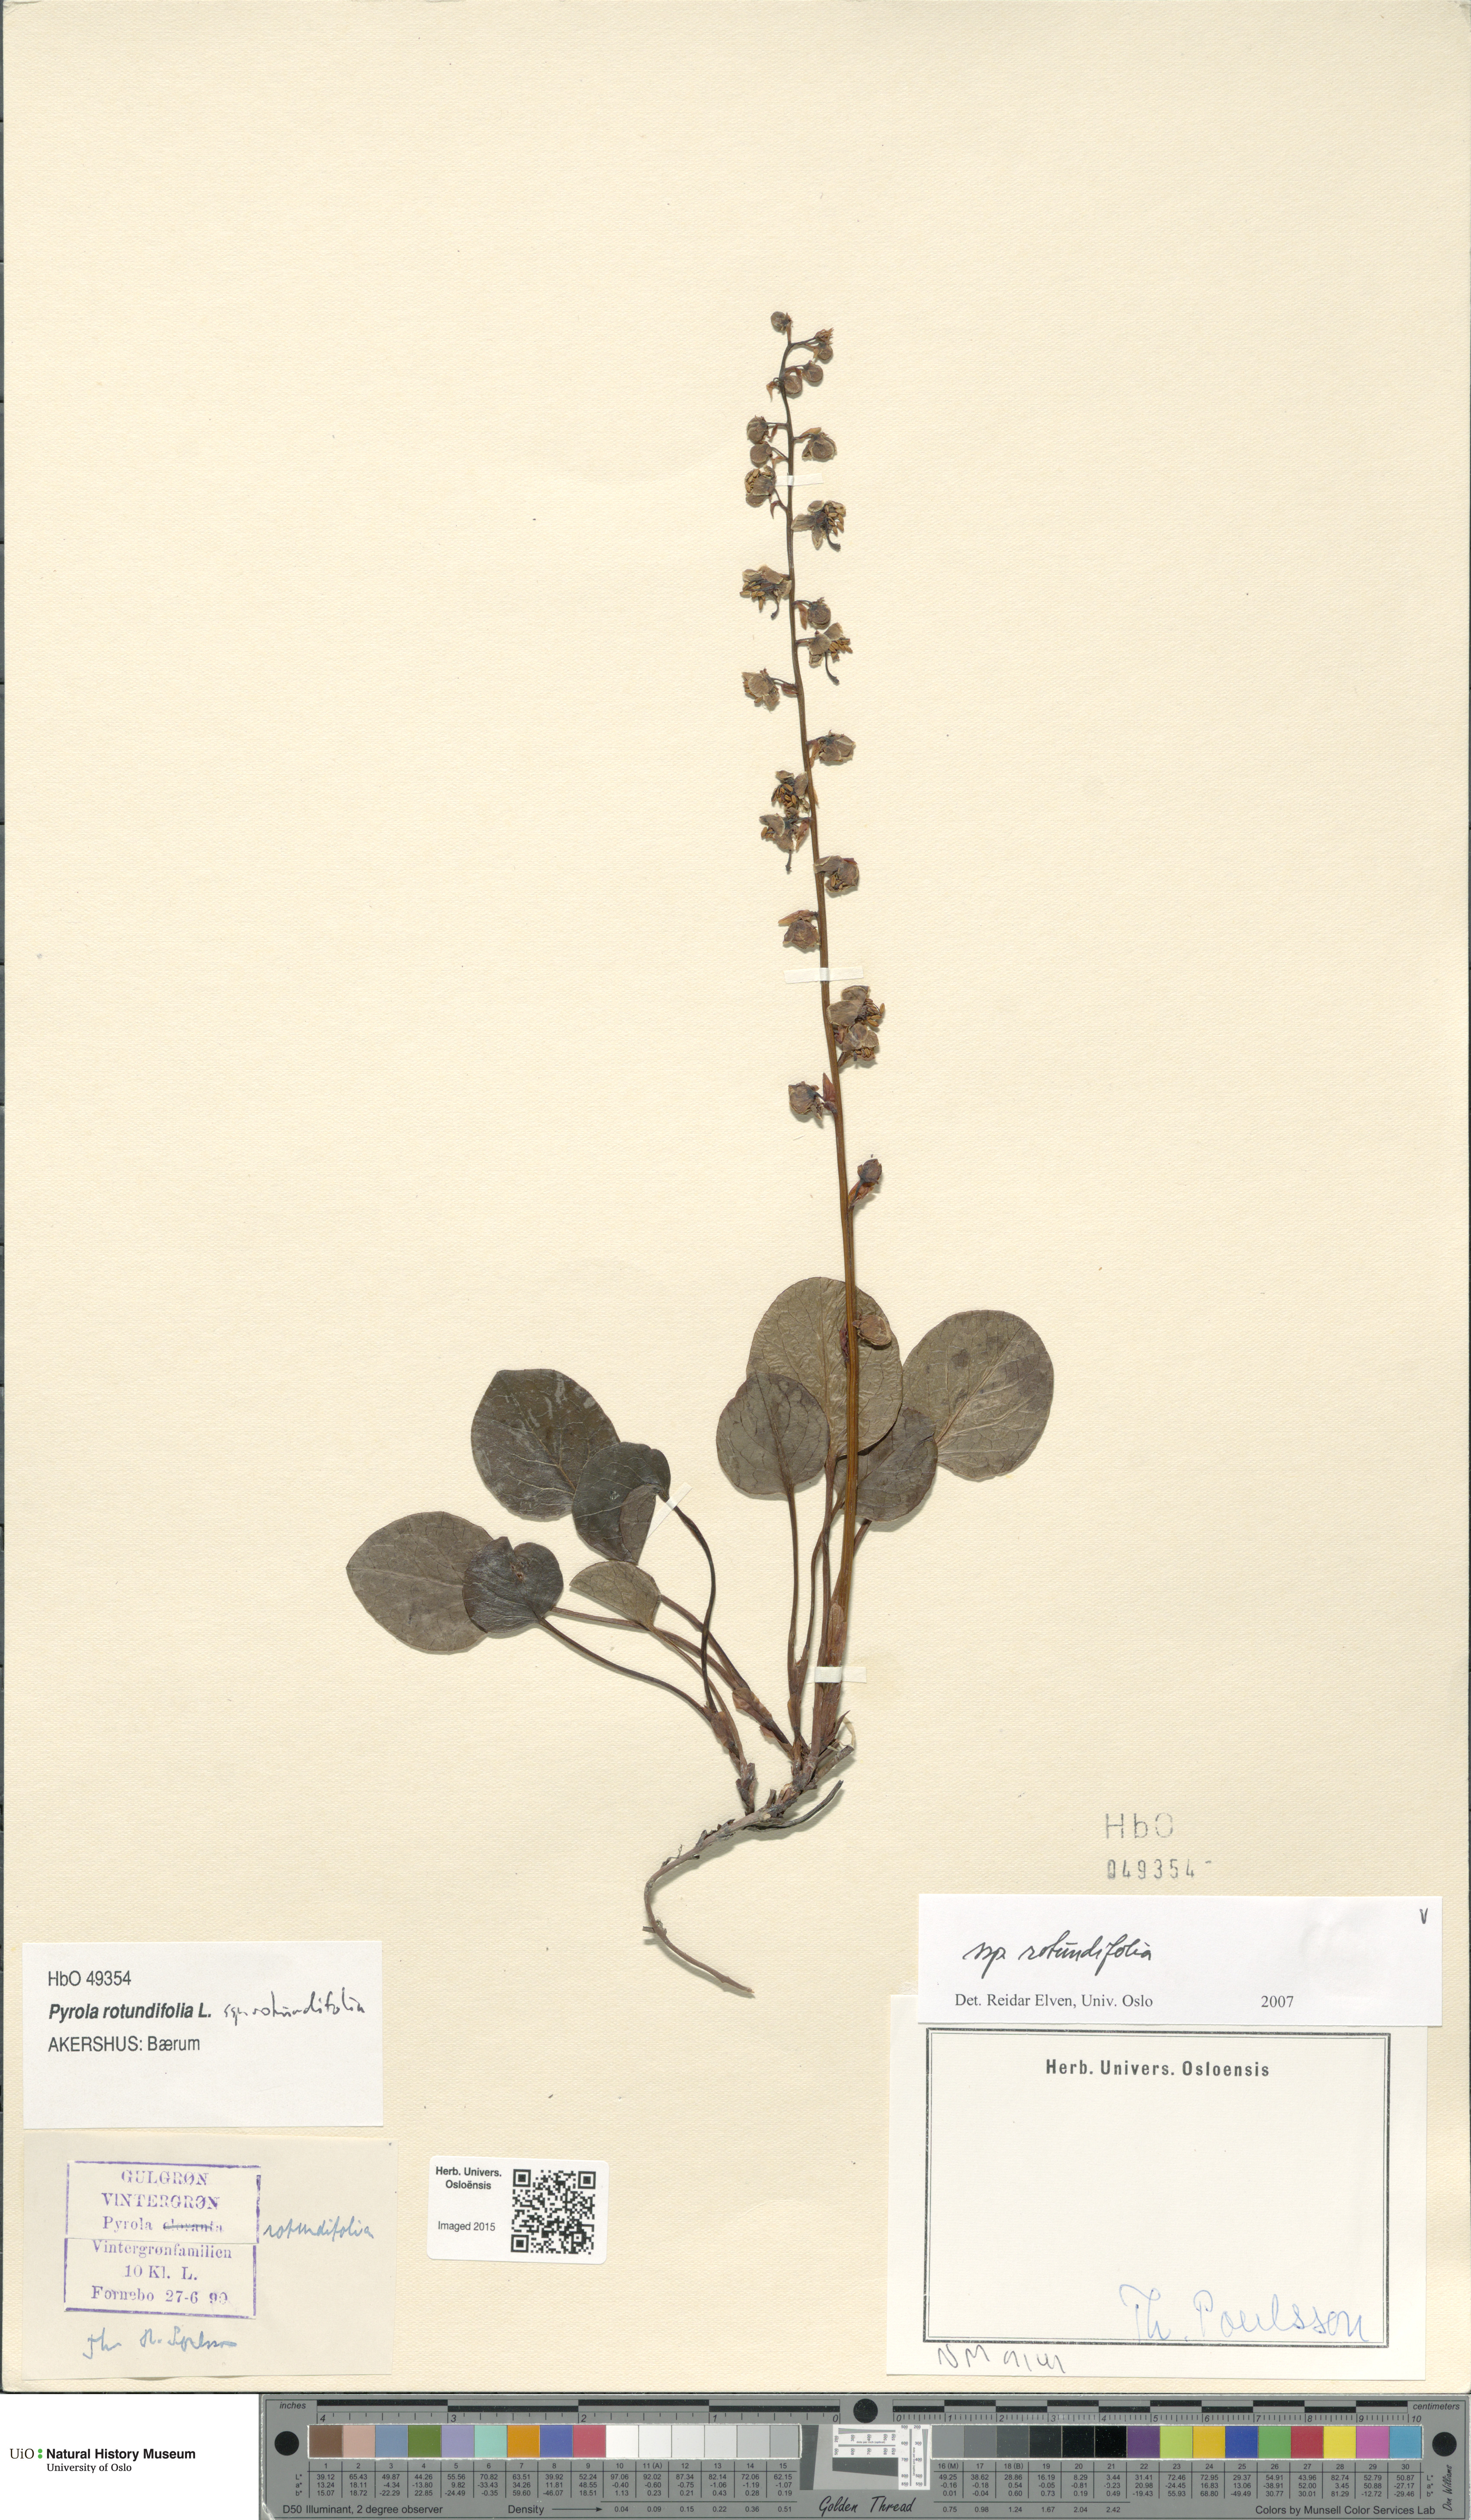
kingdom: Plantae
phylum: Tracheophyta
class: Magnoliopsida
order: Ericales
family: Ericaceae
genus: Pyrola
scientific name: Pyrola rotundifolia
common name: Round-leaved wintergreen
